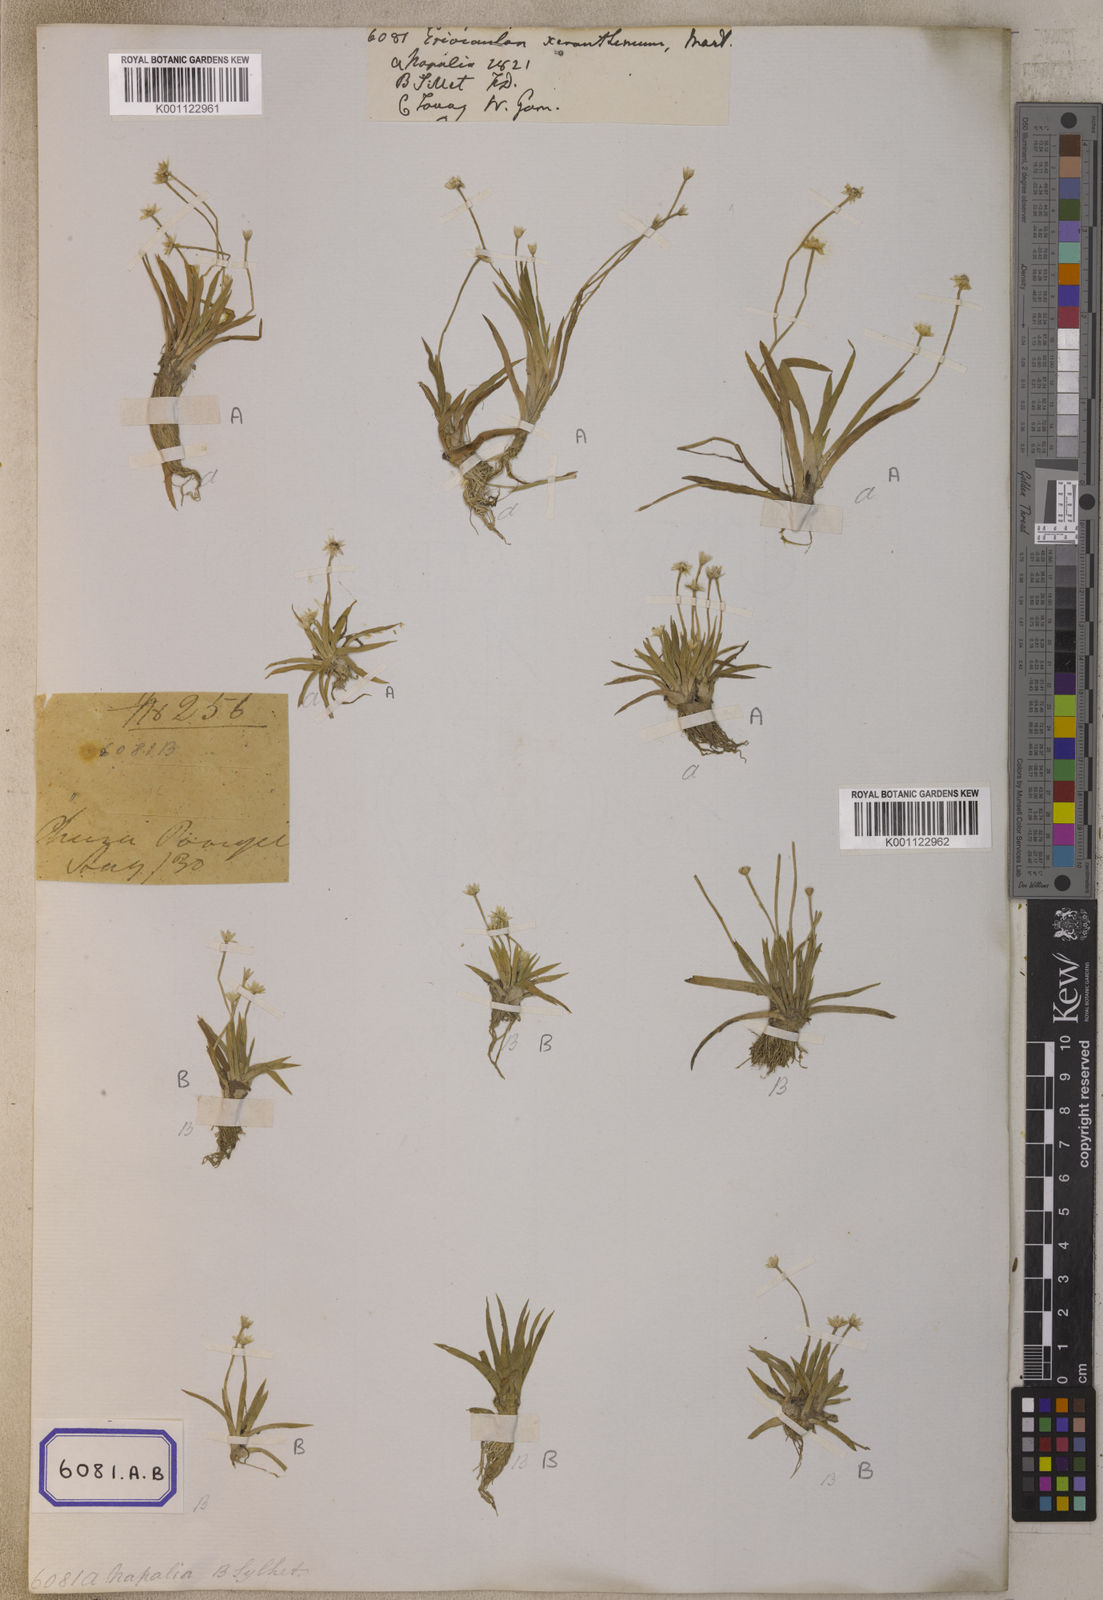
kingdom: Plantae
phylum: Tracheophyta
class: Liliopsida
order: Poales
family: Eriocaulaceae
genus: Eriocaulon
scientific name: Eriocaulon xeranthemum
